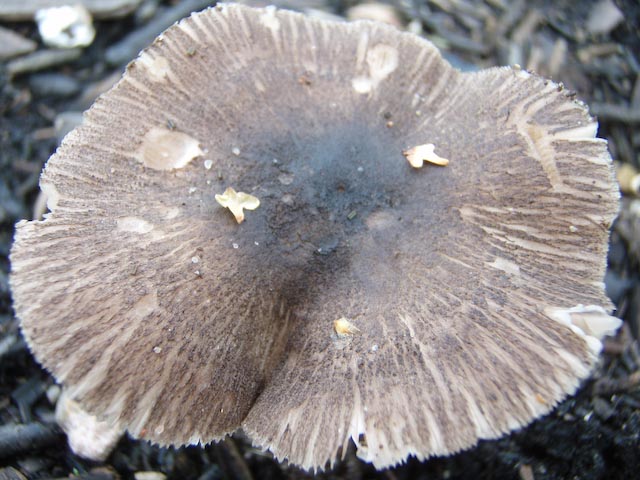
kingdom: Fungi
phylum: Basidiomycota
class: Agaricomycetes
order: Agaricales
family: Pluteaceae
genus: Pluteus
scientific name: Pluteus
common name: gråfibret skærmhat
